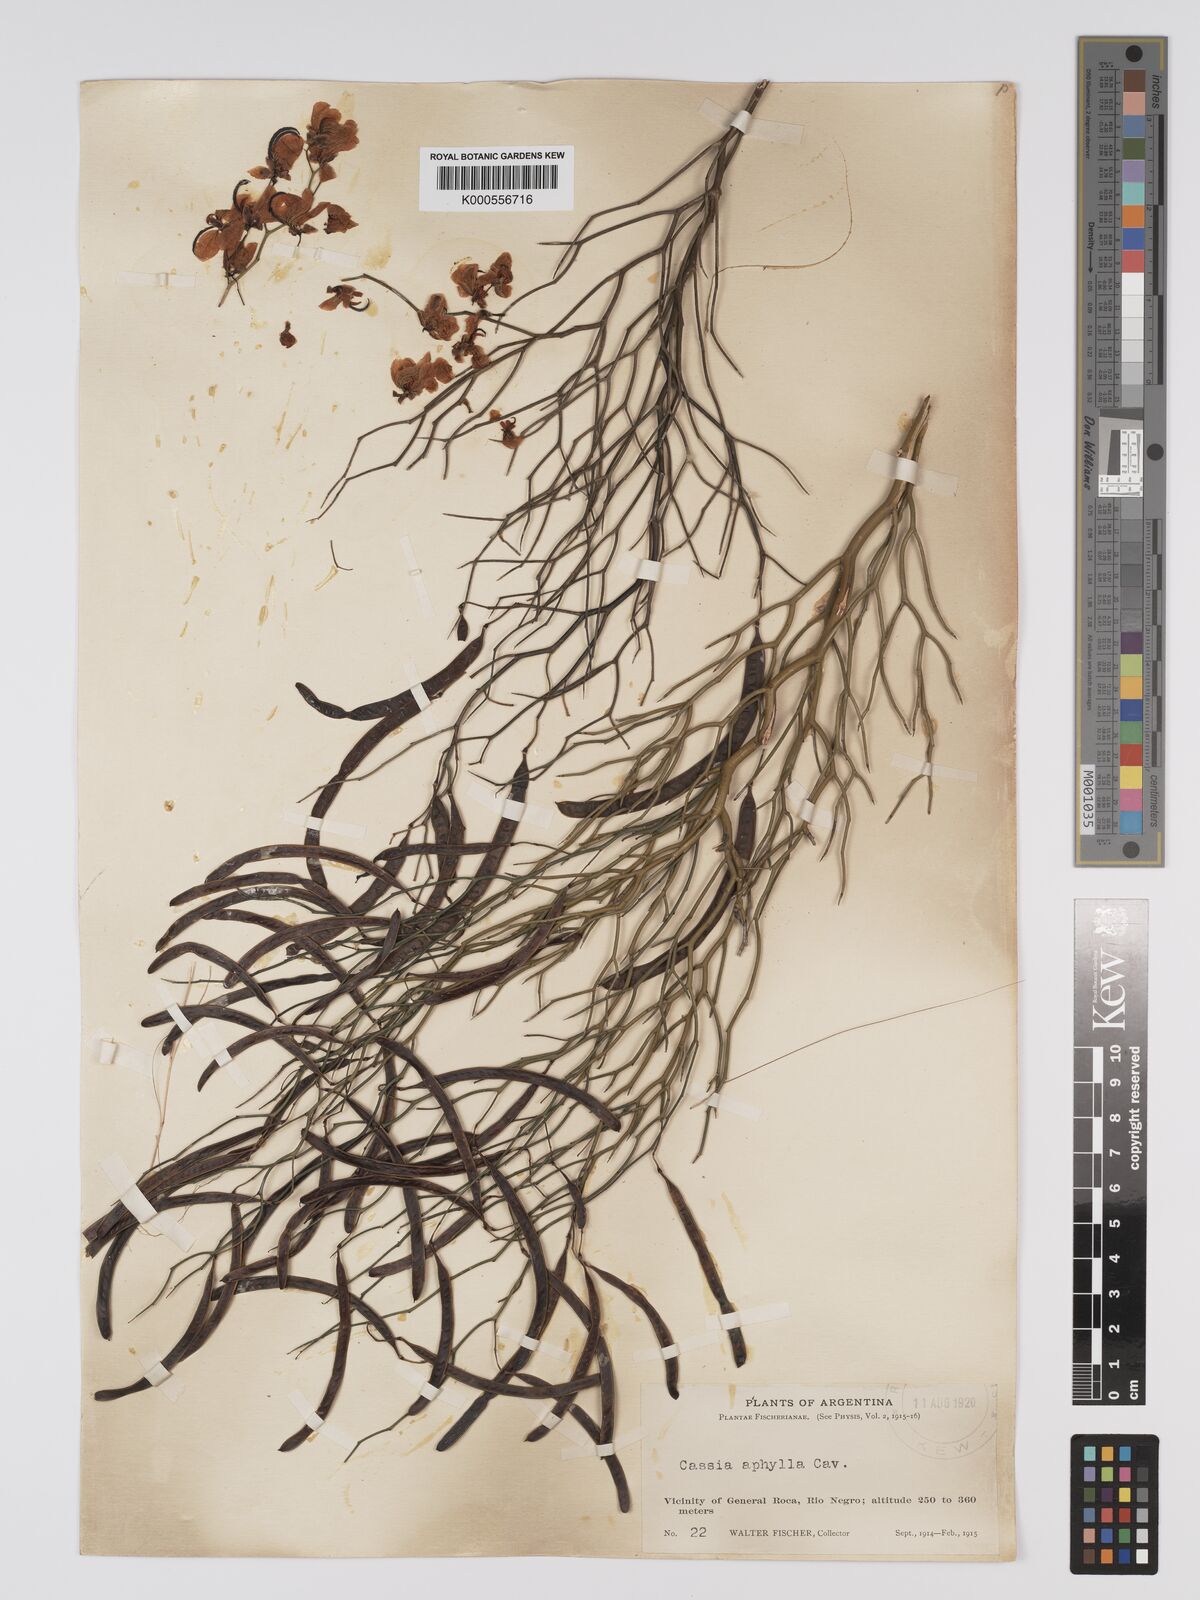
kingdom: Plantae
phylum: Tracheophyta
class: Magnoliopsida
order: Fabales
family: Fabaceae
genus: Senna
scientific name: Senna aphylla
